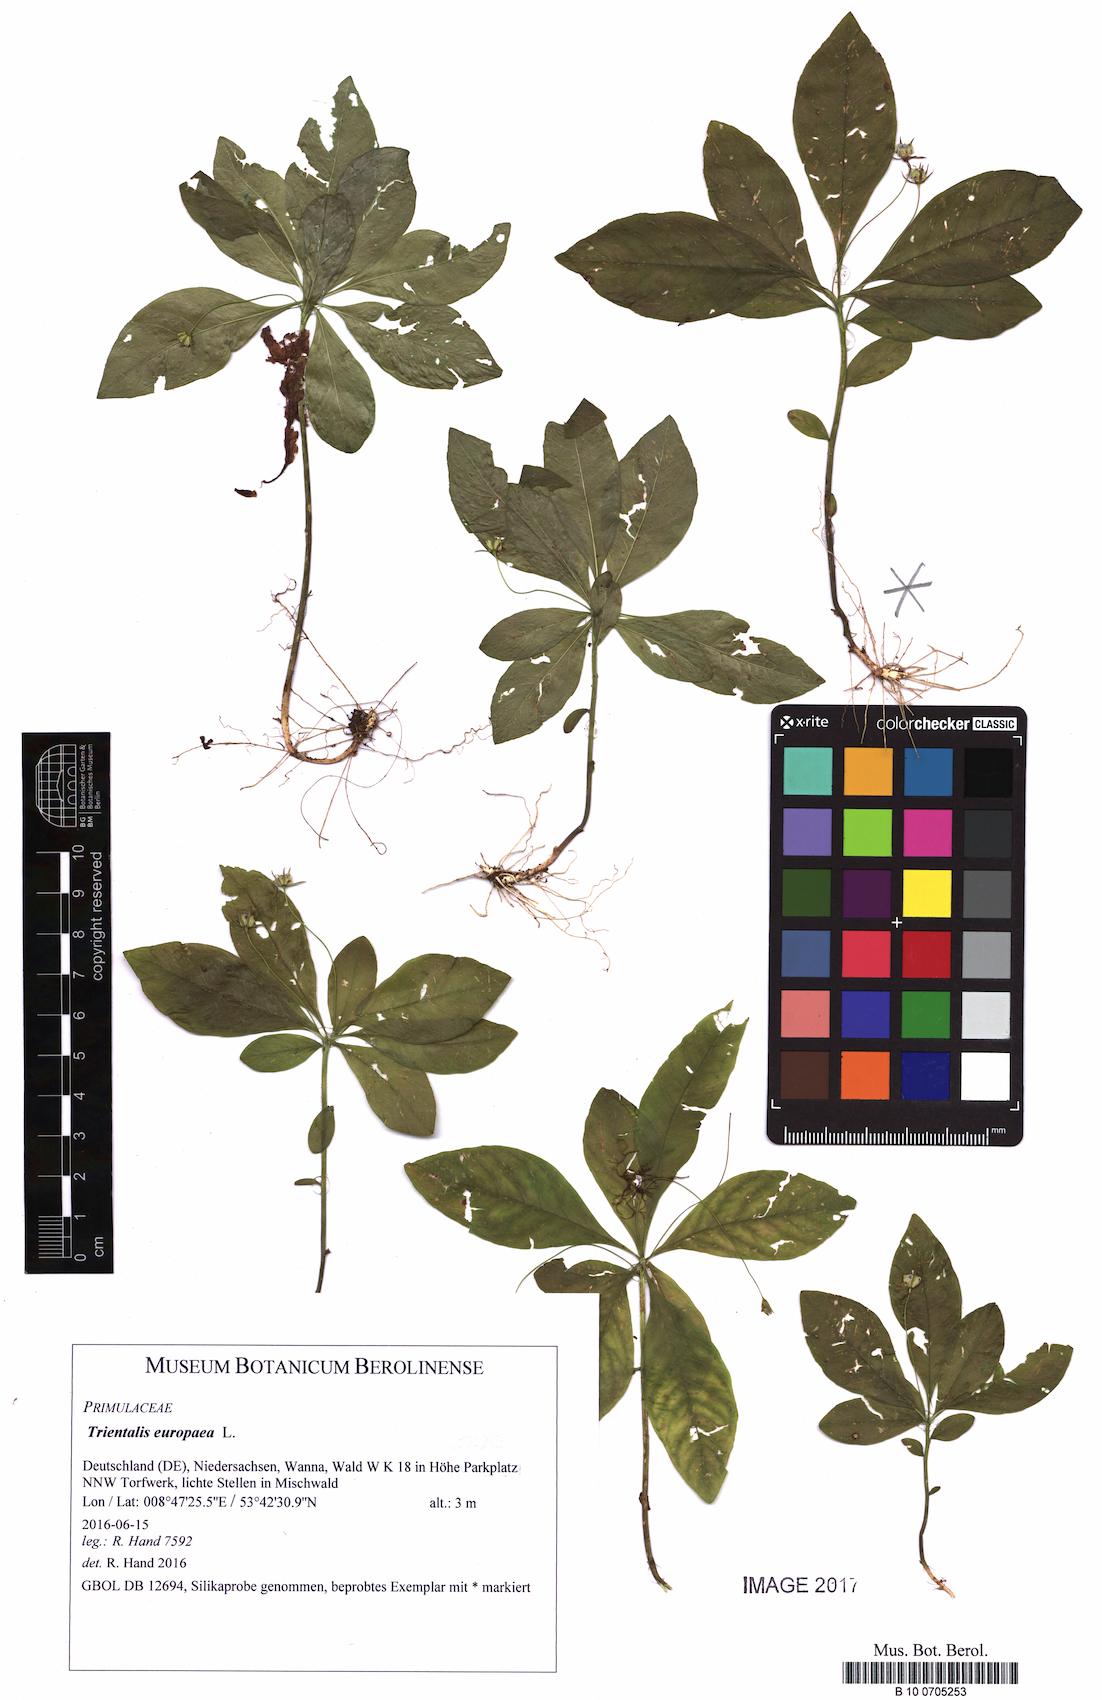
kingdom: Plantae
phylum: Tracheophyta
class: Magnoliopsida
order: Ericales
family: Primulaceae
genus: Lysimachia
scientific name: Lysimachia europaea
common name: Arctic starflower
